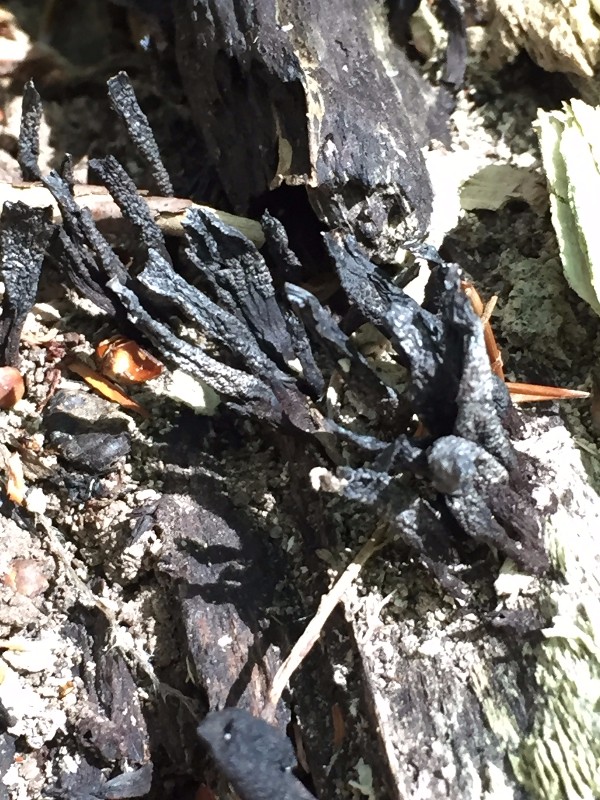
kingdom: Fungi
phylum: Ascomycota
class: Sordariomycetes
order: Xylariales
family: Xylariaceae
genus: Xylaria
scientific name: Xylaria hypoxylon
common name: grenet stødsvamp
